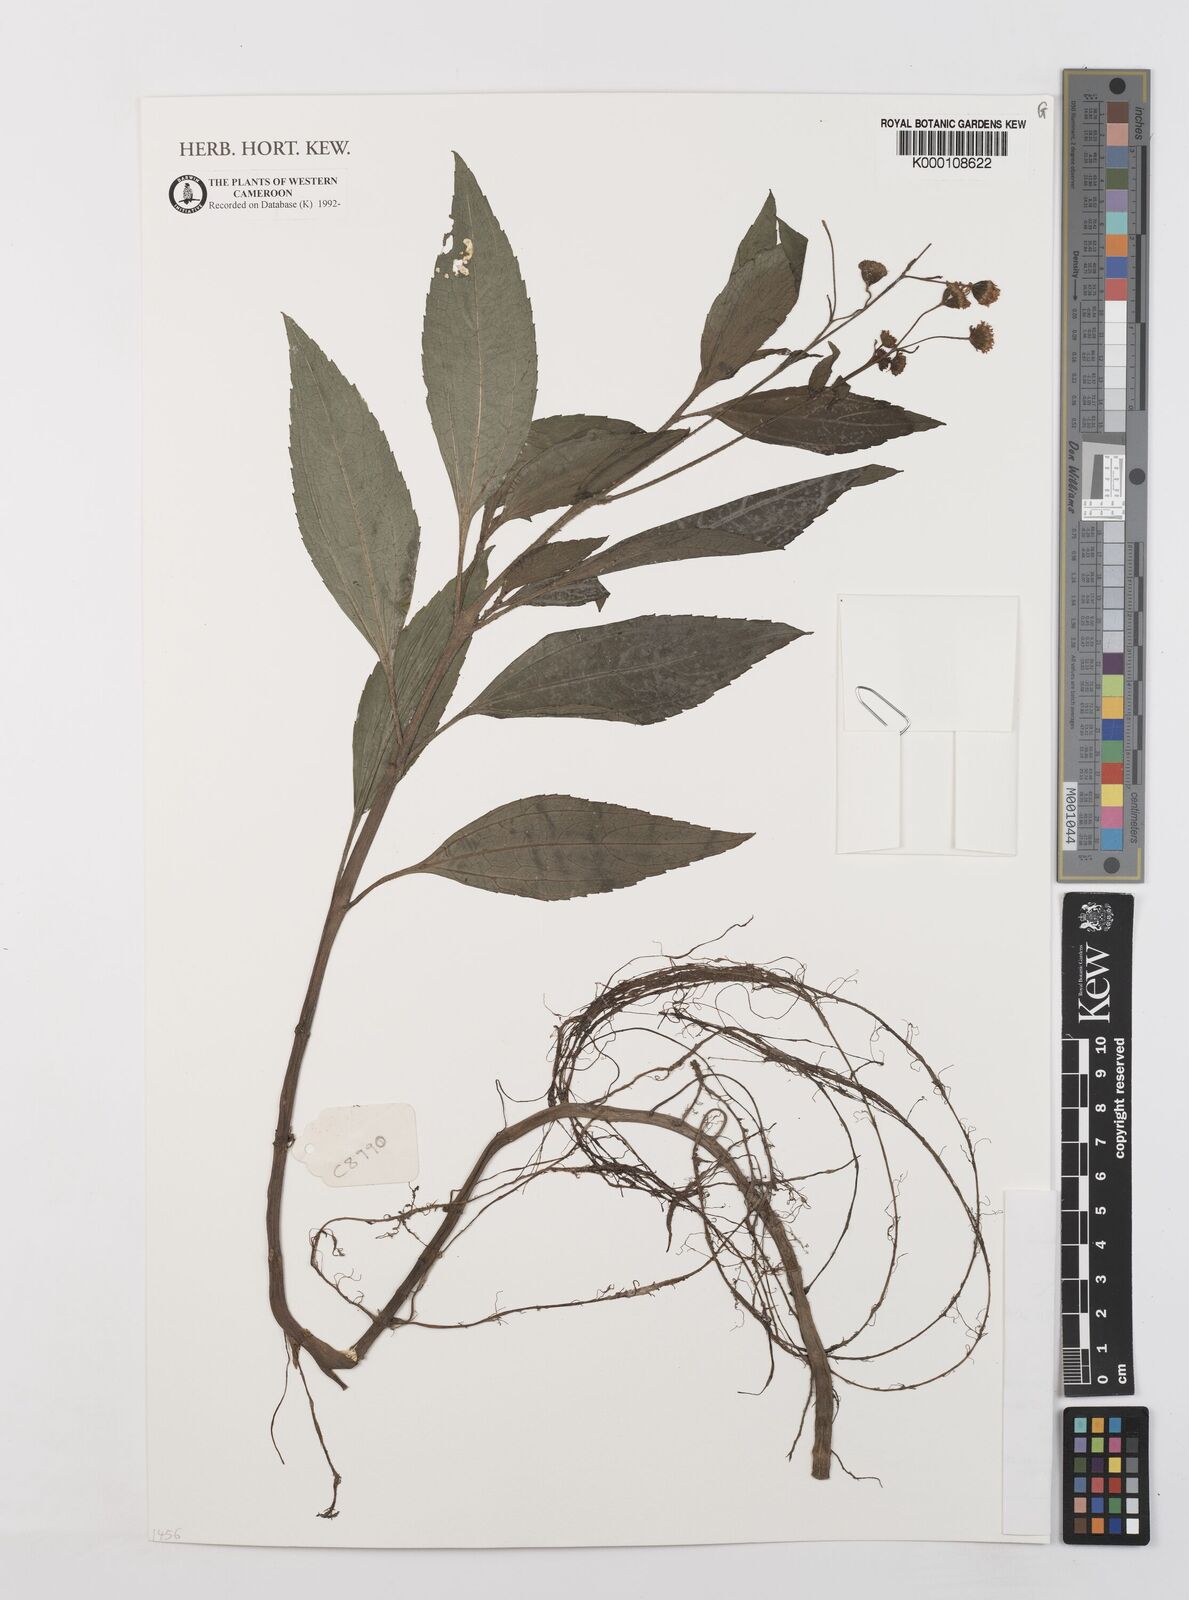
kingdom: Plantae
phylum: Tracheophyta
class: Magnoliopsida
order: Asterales
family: Asteraceae
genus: Adenostemma
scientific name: Adenostemma caffrum
